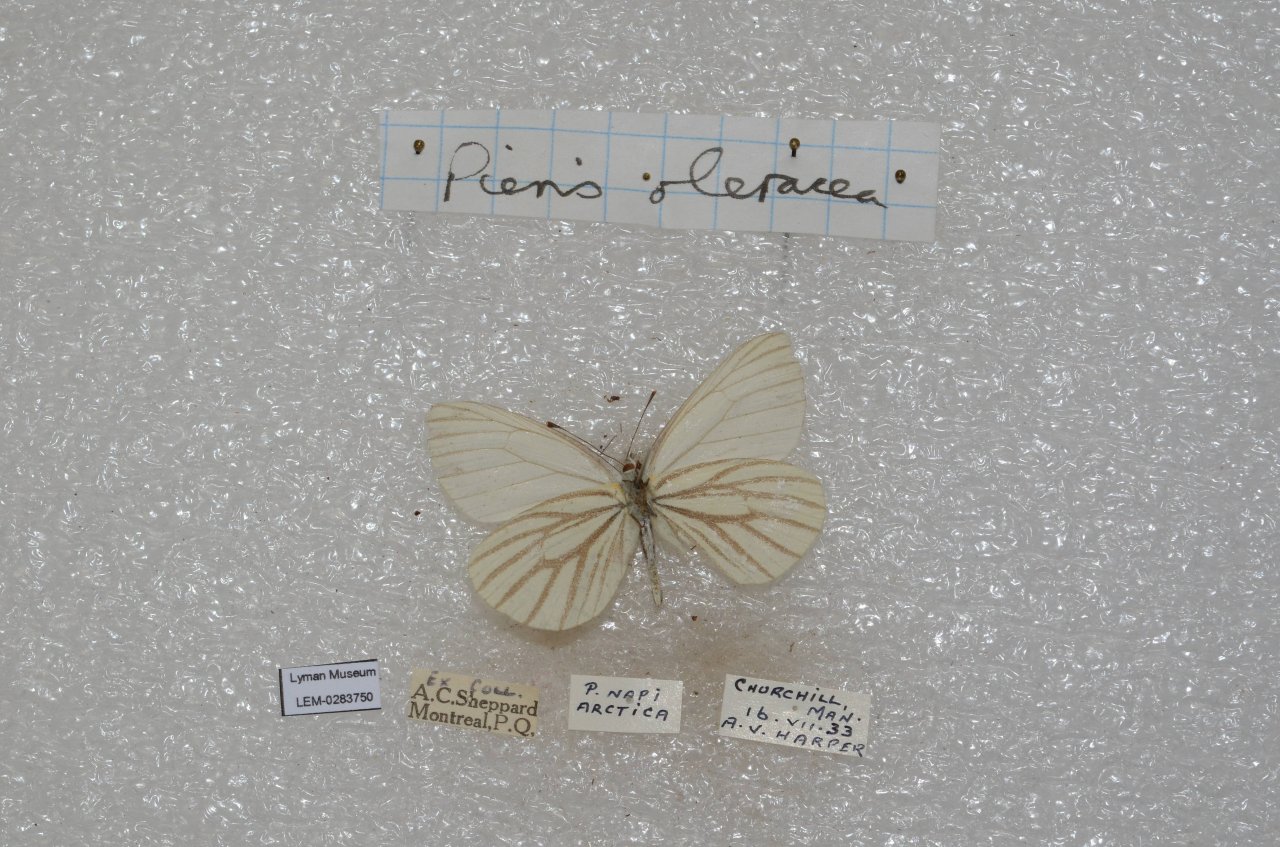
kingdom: Animalia
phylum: Arthropoda
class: Insecta
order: Lepidoptera
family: Pieridae
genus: Pieris
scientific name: Pieris oleracea
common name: Mustard White
